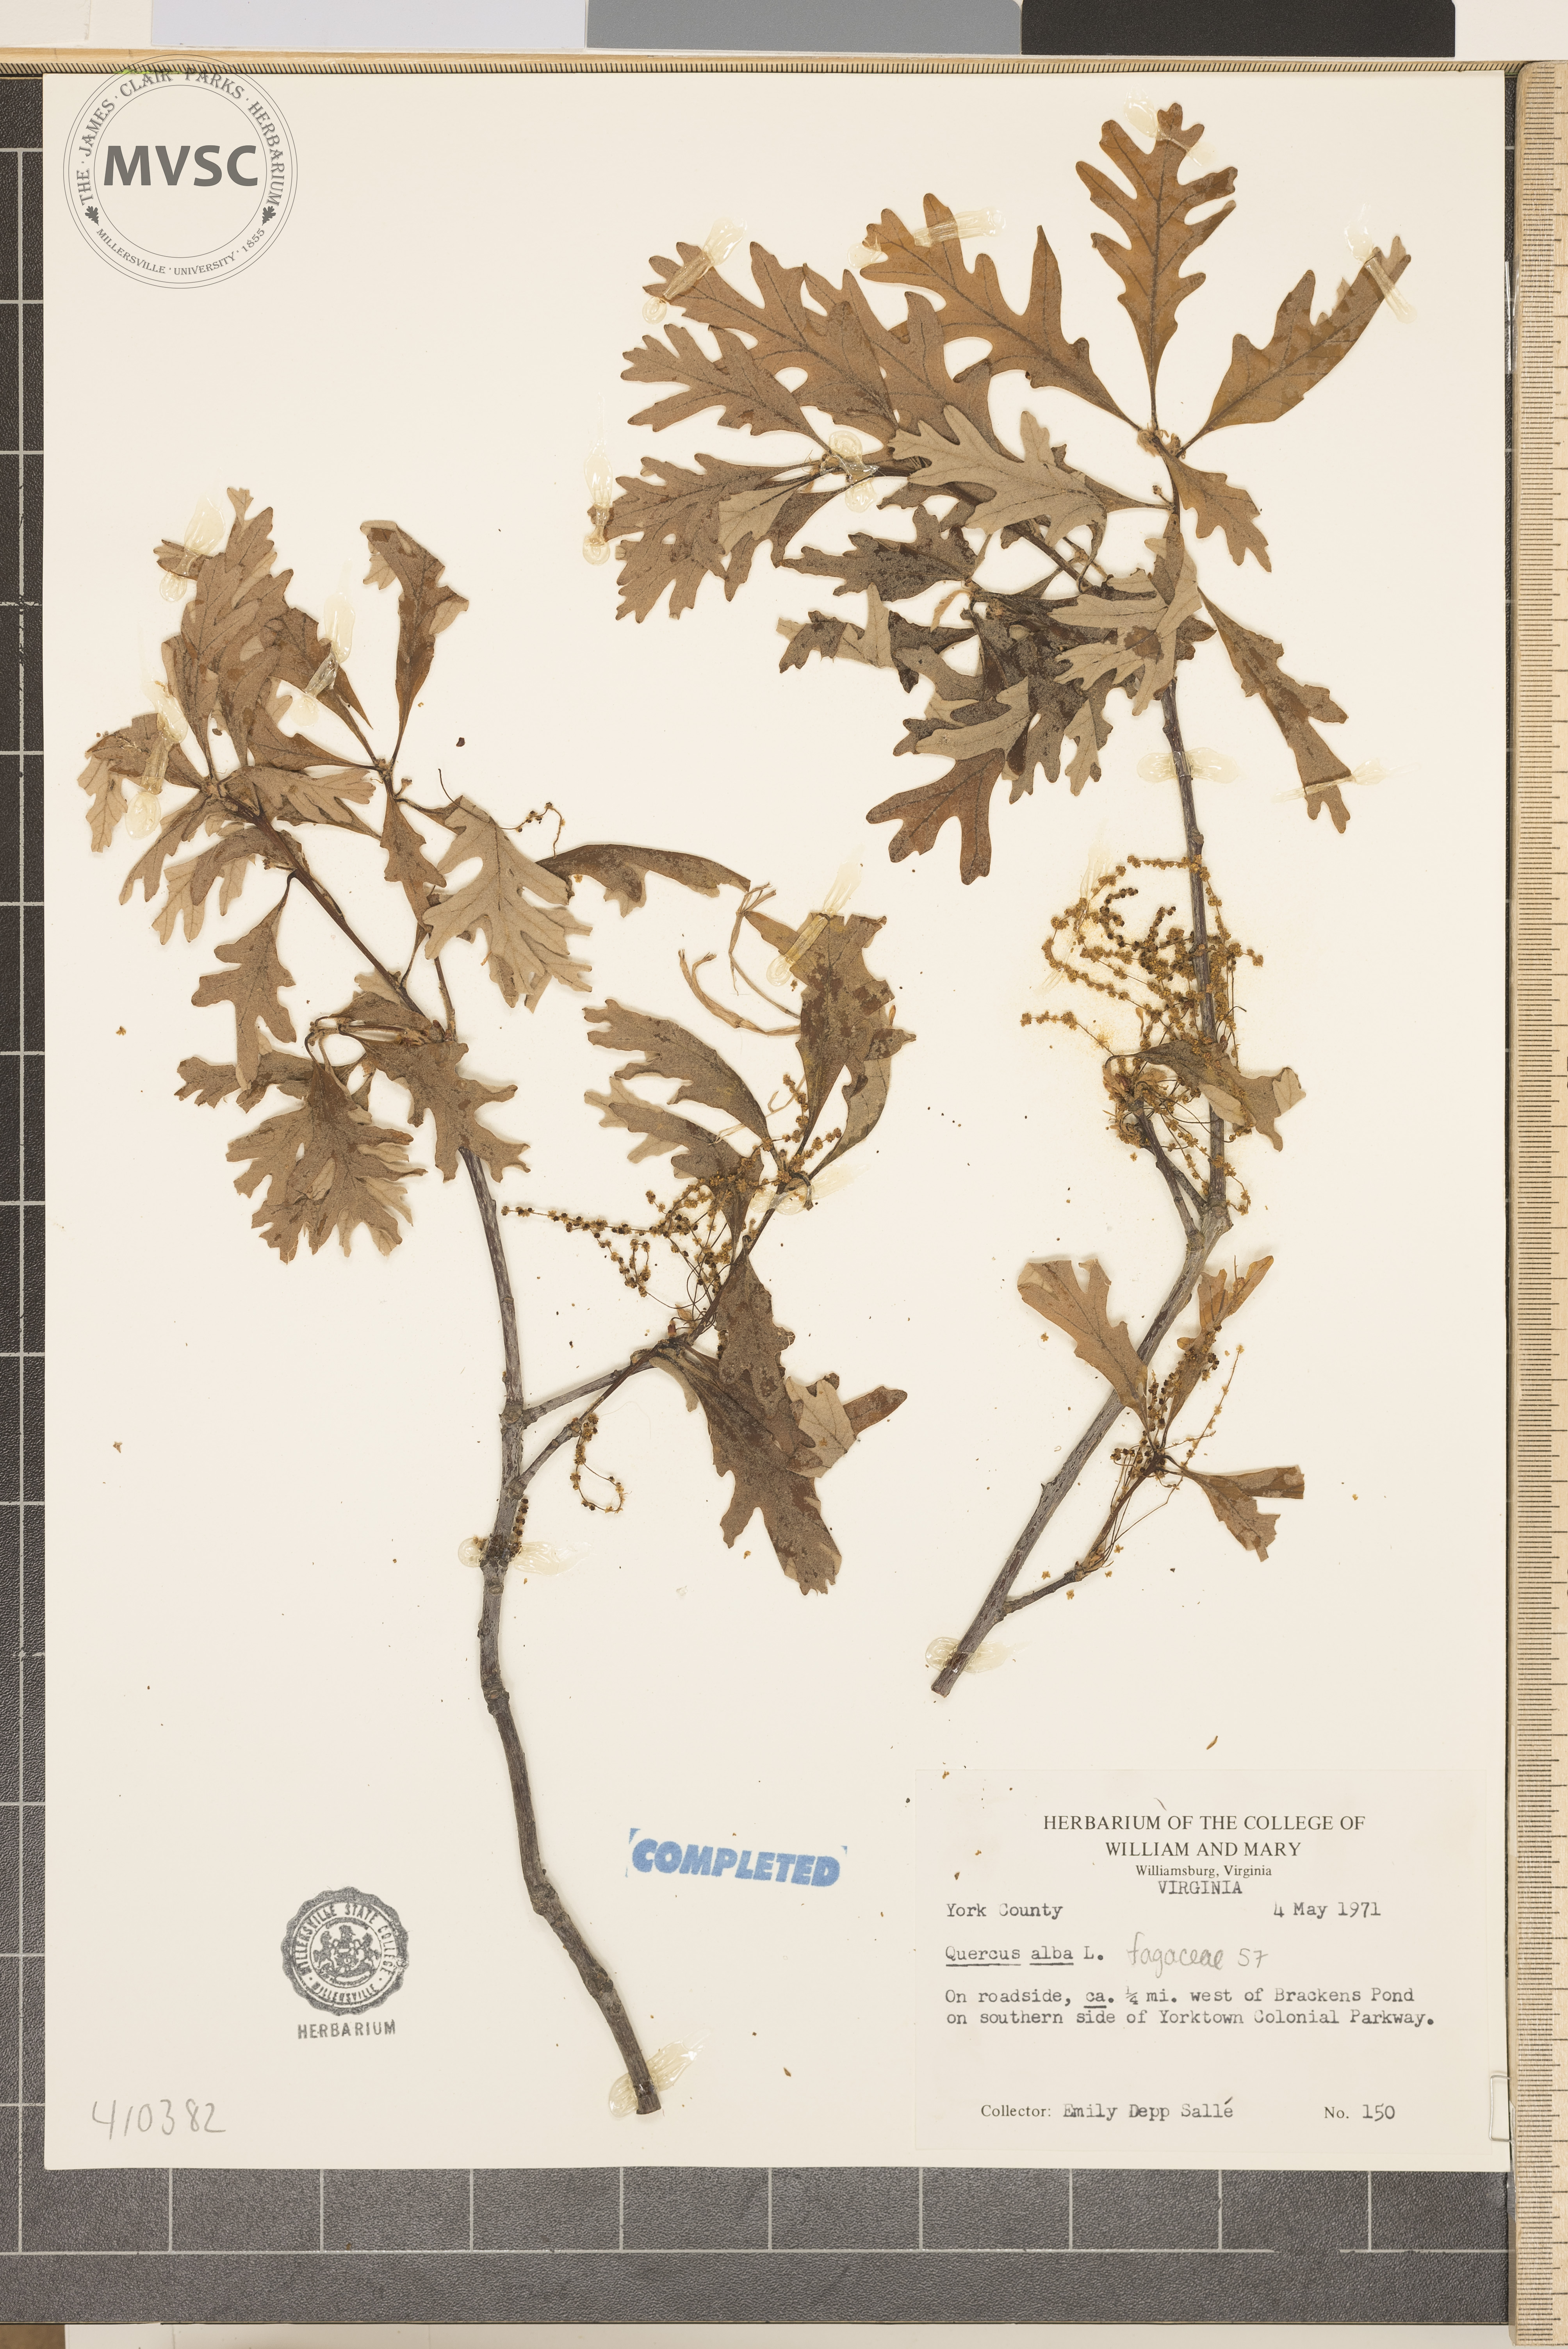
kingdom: Plantae
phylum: Tracheophyta
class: Magnoliopsida
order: Fagales
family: Fagaceae
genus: Quercus
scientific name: Quercus alba
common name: White oak
